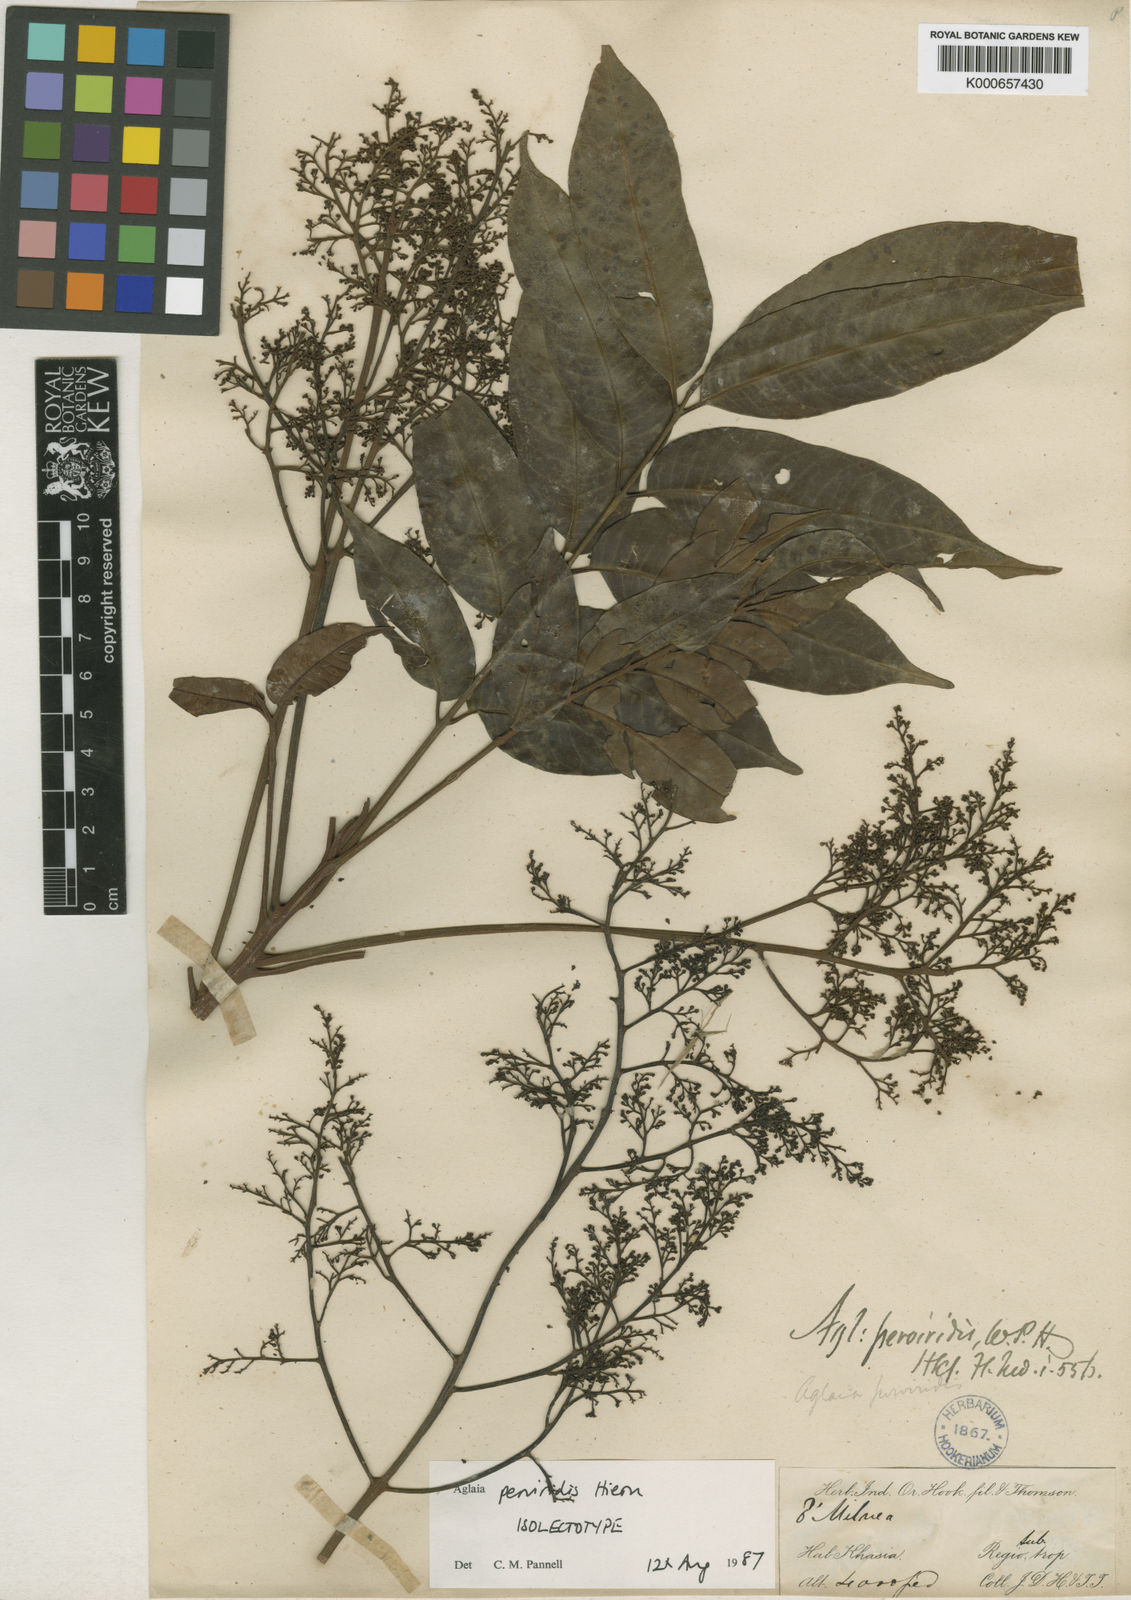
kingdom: Plantae
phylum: Tracheophyta
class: Magnoliopsida
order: Sapindales
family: Meliaceae
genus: Aglaia
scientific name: Aglaia perviridis
